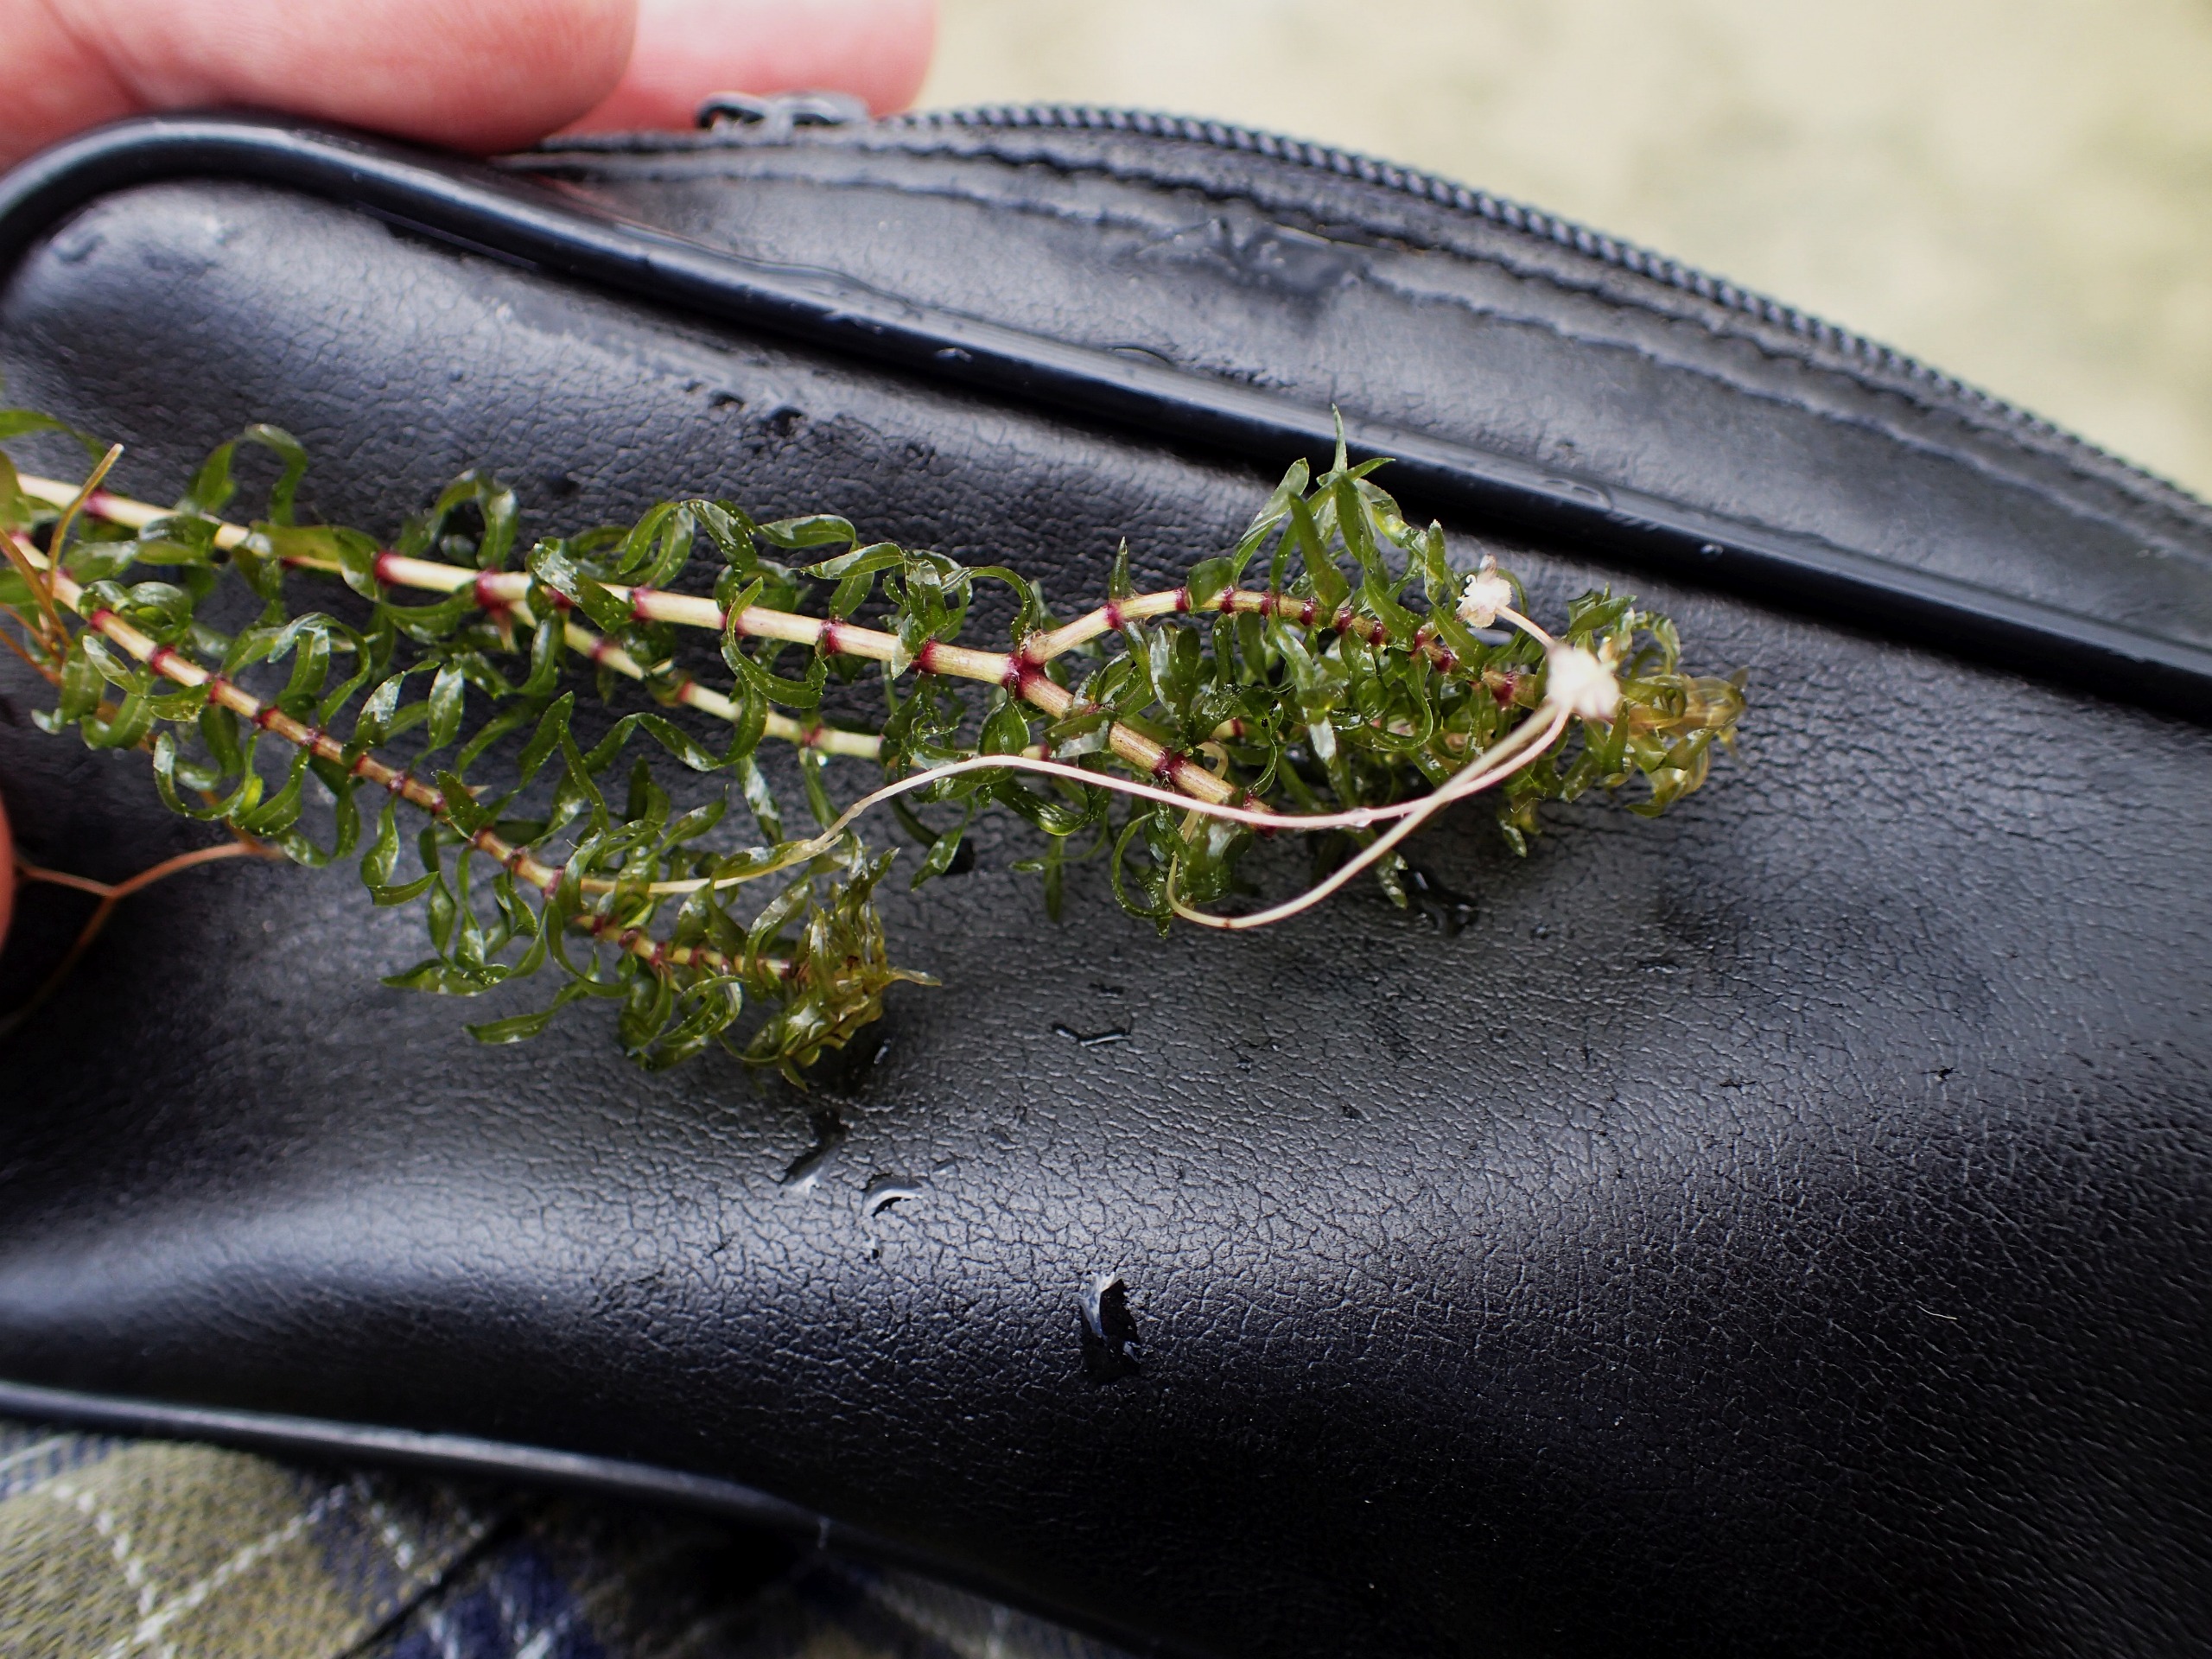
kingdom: Plantae
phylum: Tracheophyta
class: Liliopsida
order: Alismatales
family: Hydrocharitaceae
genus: Elodea
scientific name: Elodea nuttallii
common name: Smalbladet vandpest
